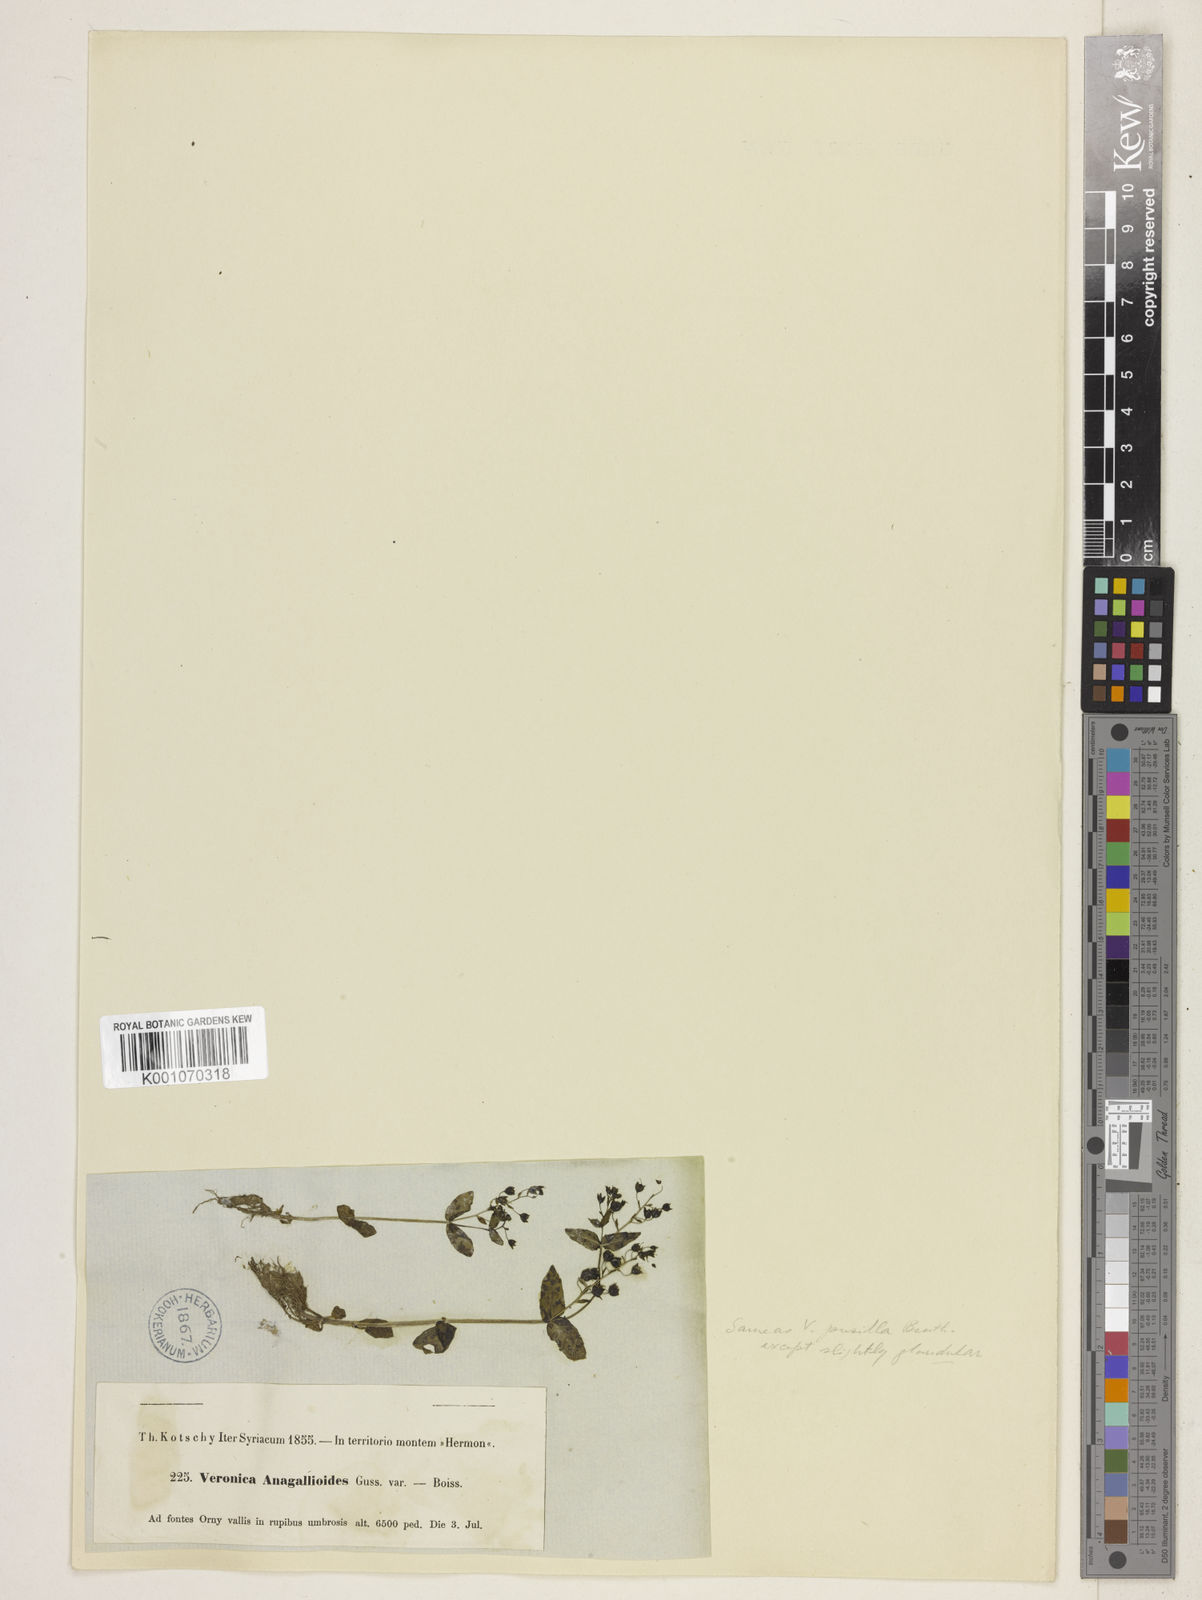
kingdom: Plantae
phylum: Tracheophyta
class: Magnoliopsida
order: Lamiales
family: Plantaginaceae
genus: Veronica
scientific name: Veronica oxycarpa
